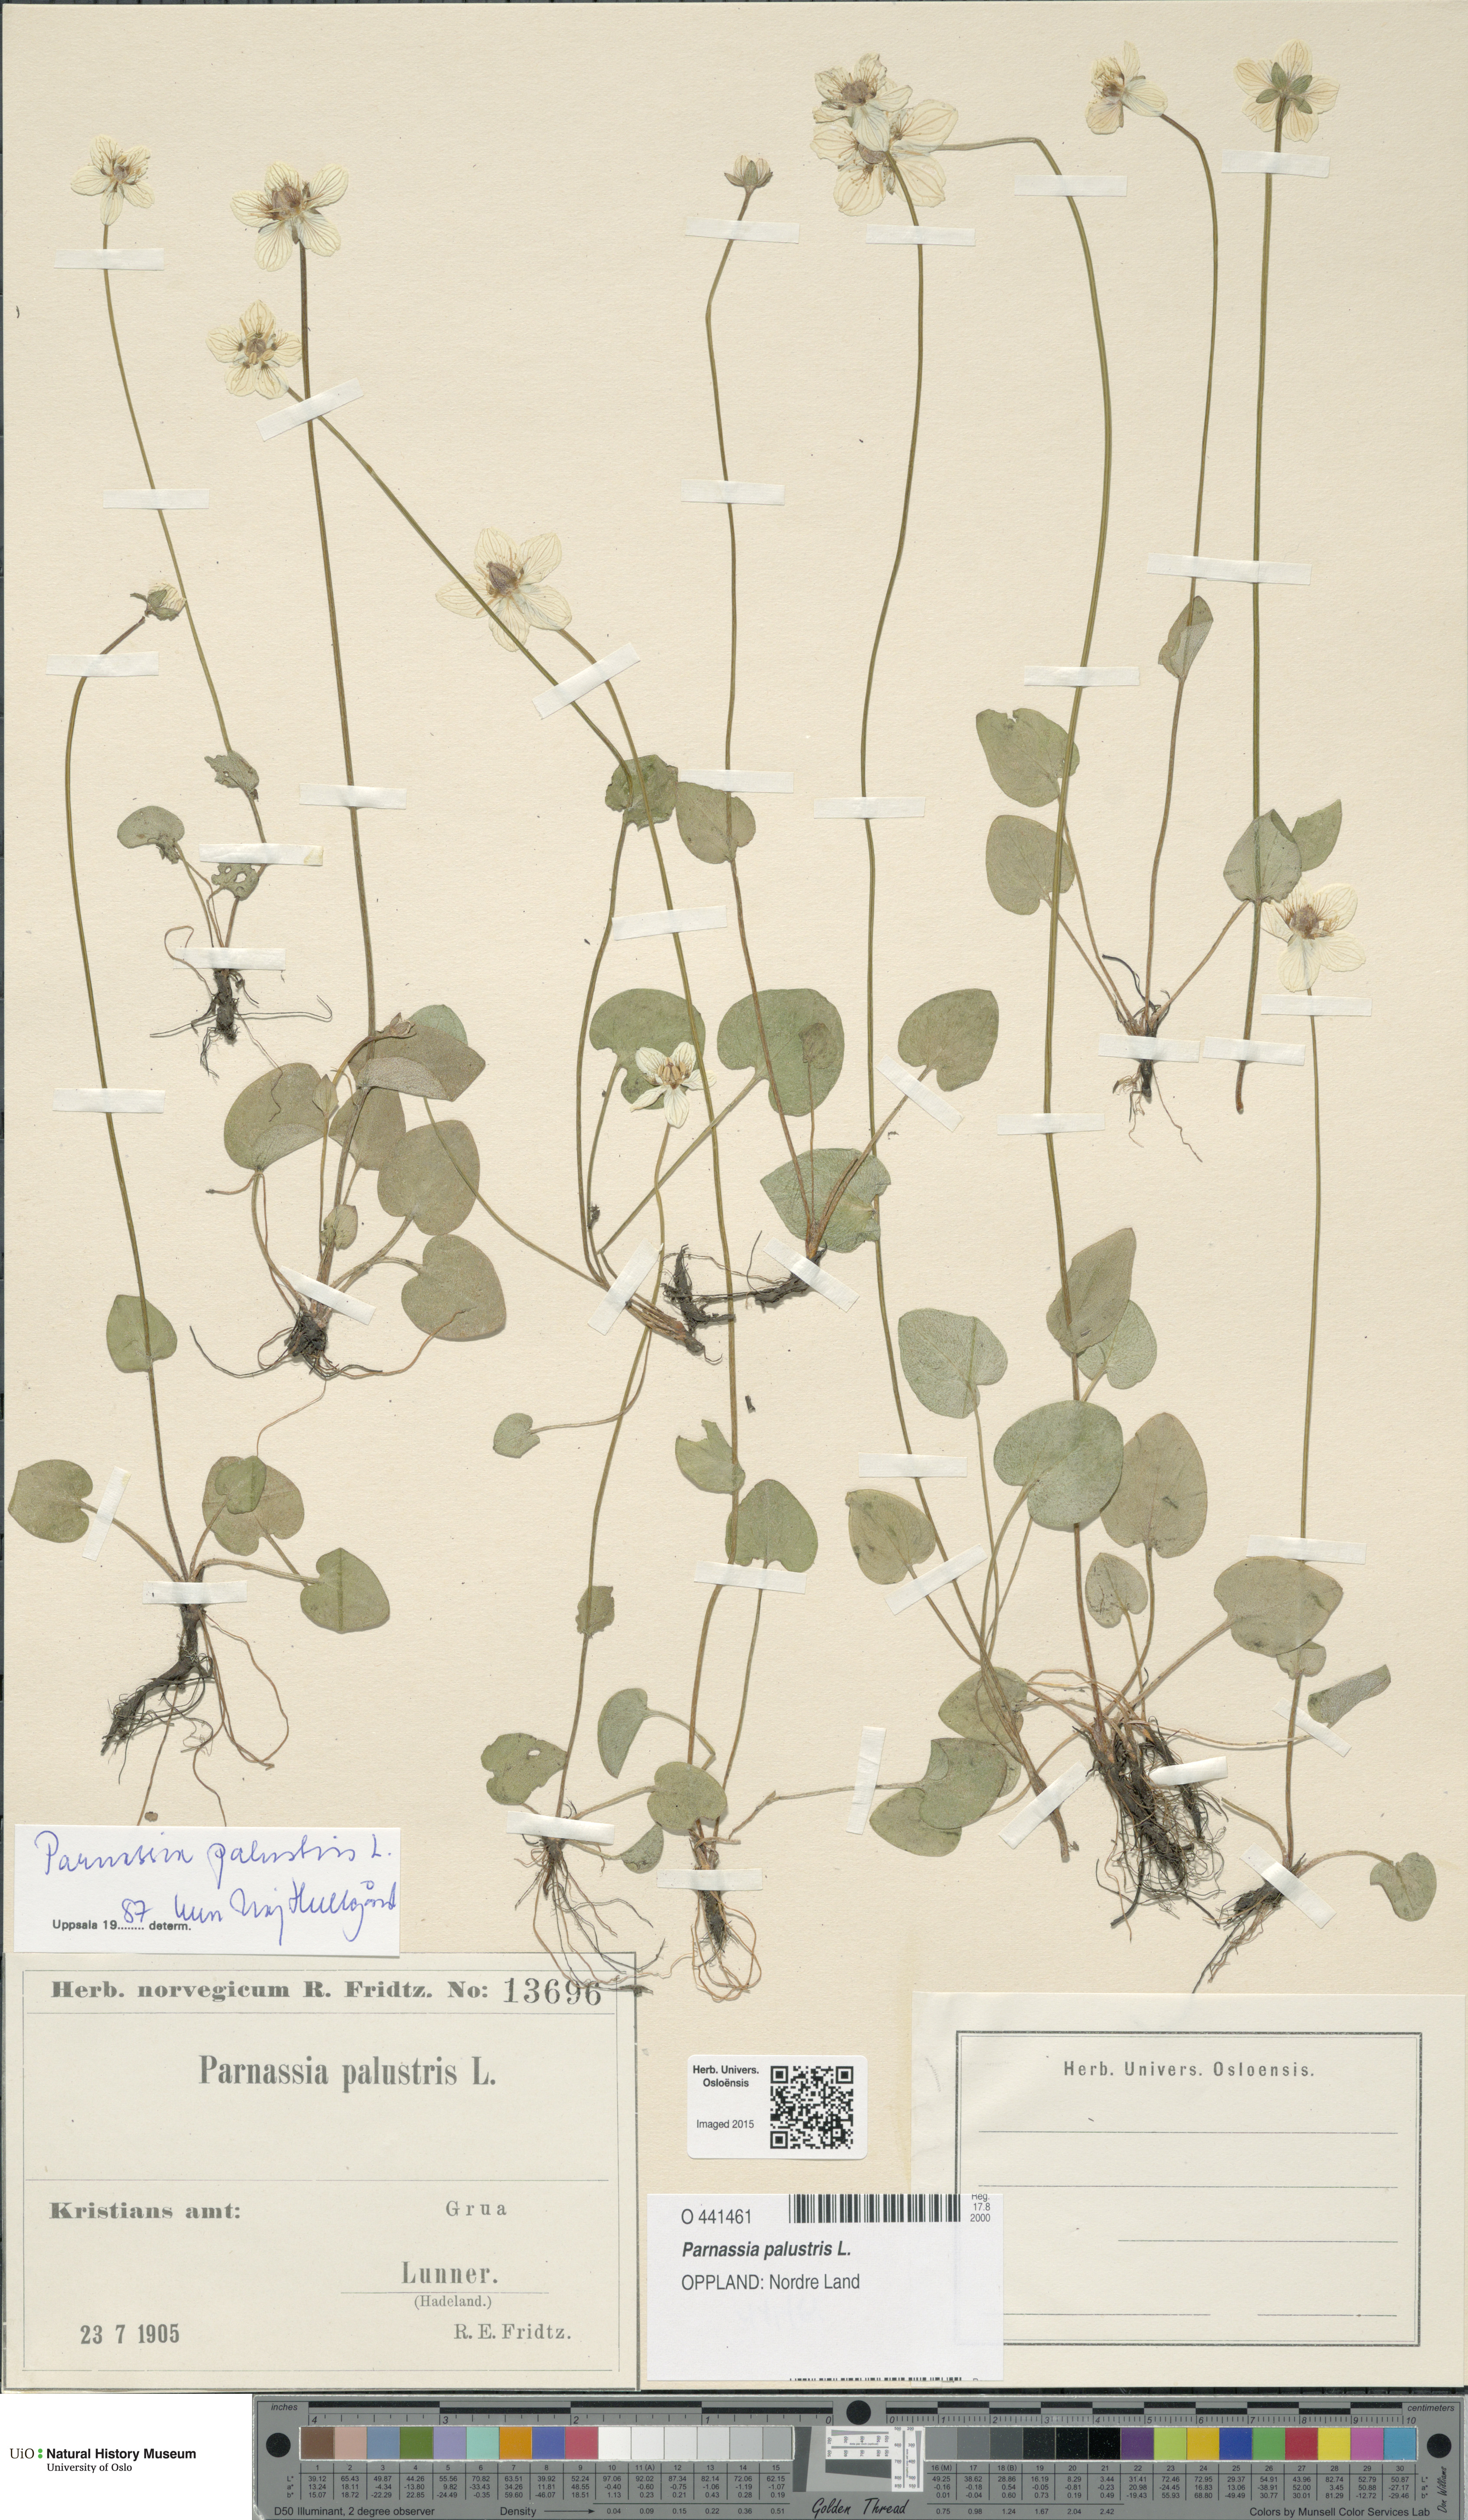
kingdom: Plantae
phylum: Tracheophyta
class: Magnoliopsida
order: Celastrales
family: Parnassiaceae
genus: Parnassia
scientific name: Parnassia palustris
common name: Grass-of-parnassus
